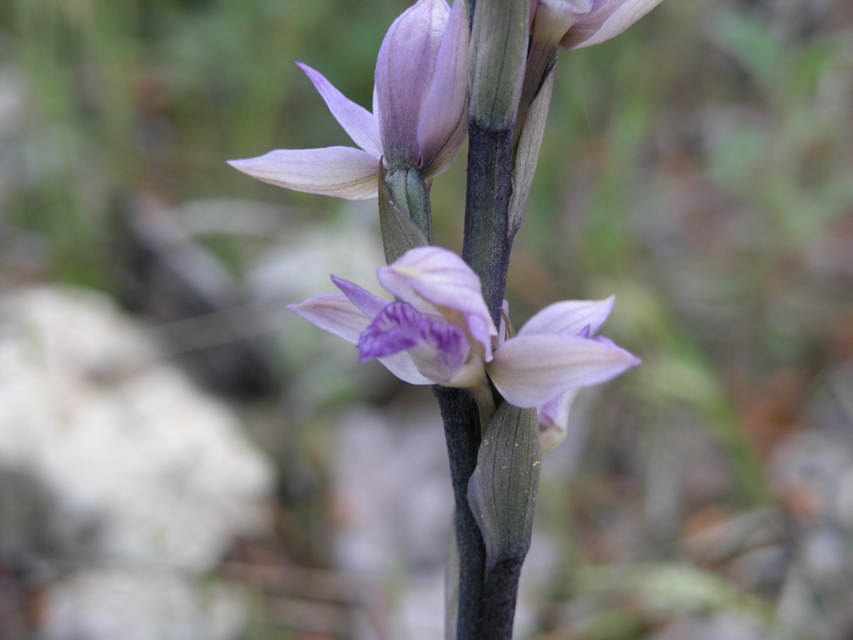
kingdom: Plantae
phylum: Tracheophyta
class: Liliopsida
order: Asparagales
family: Orchidaceae
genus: Limodorum
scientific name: Limodorum abortivum
